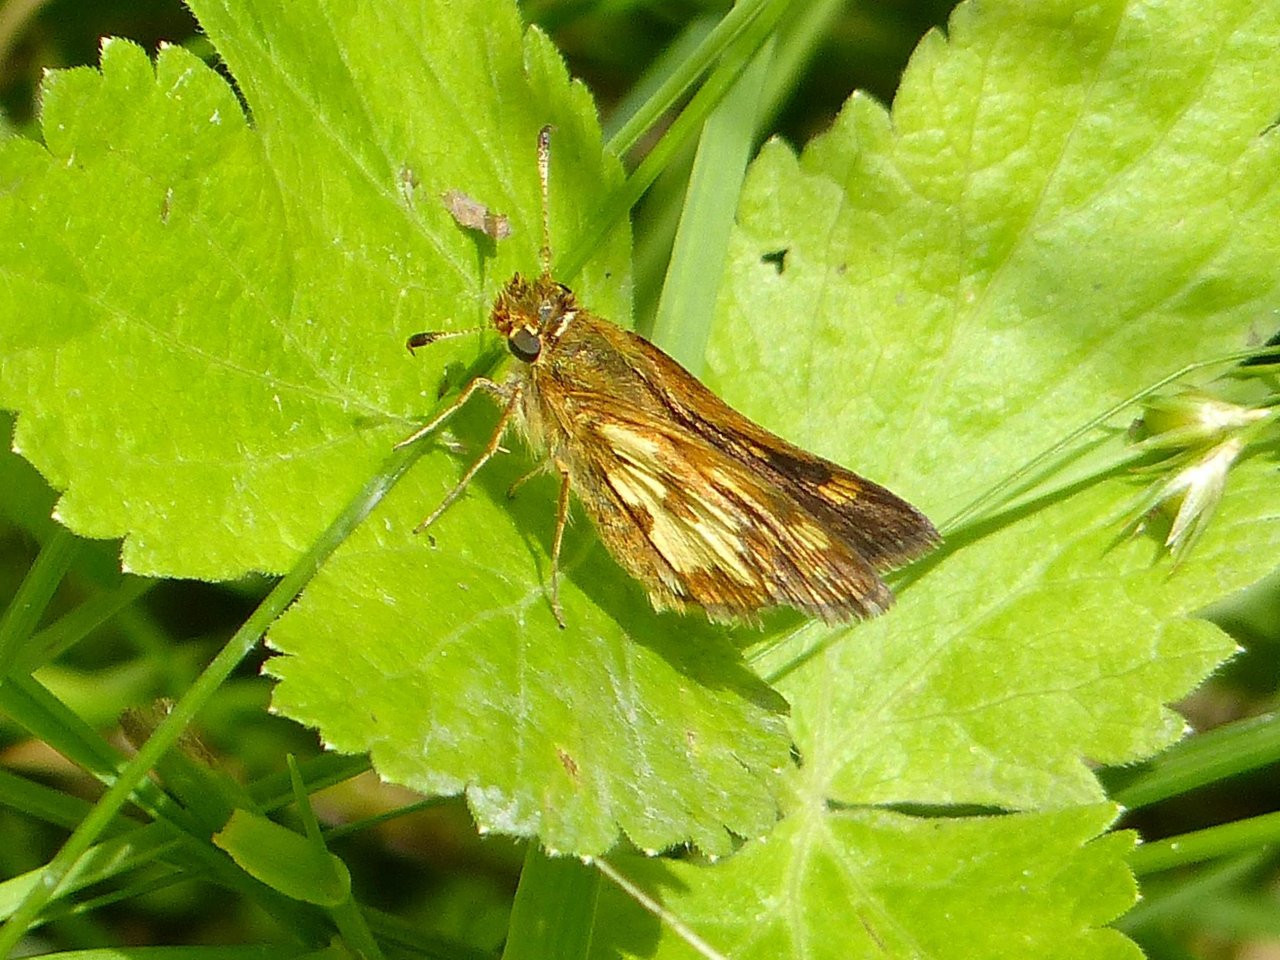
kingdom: Animalia
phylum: Arthropoda
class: Insecta
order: Lepidoptera
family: Hesperiidae
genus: Polites
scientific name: Polites coras
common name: Peck's Skipper
